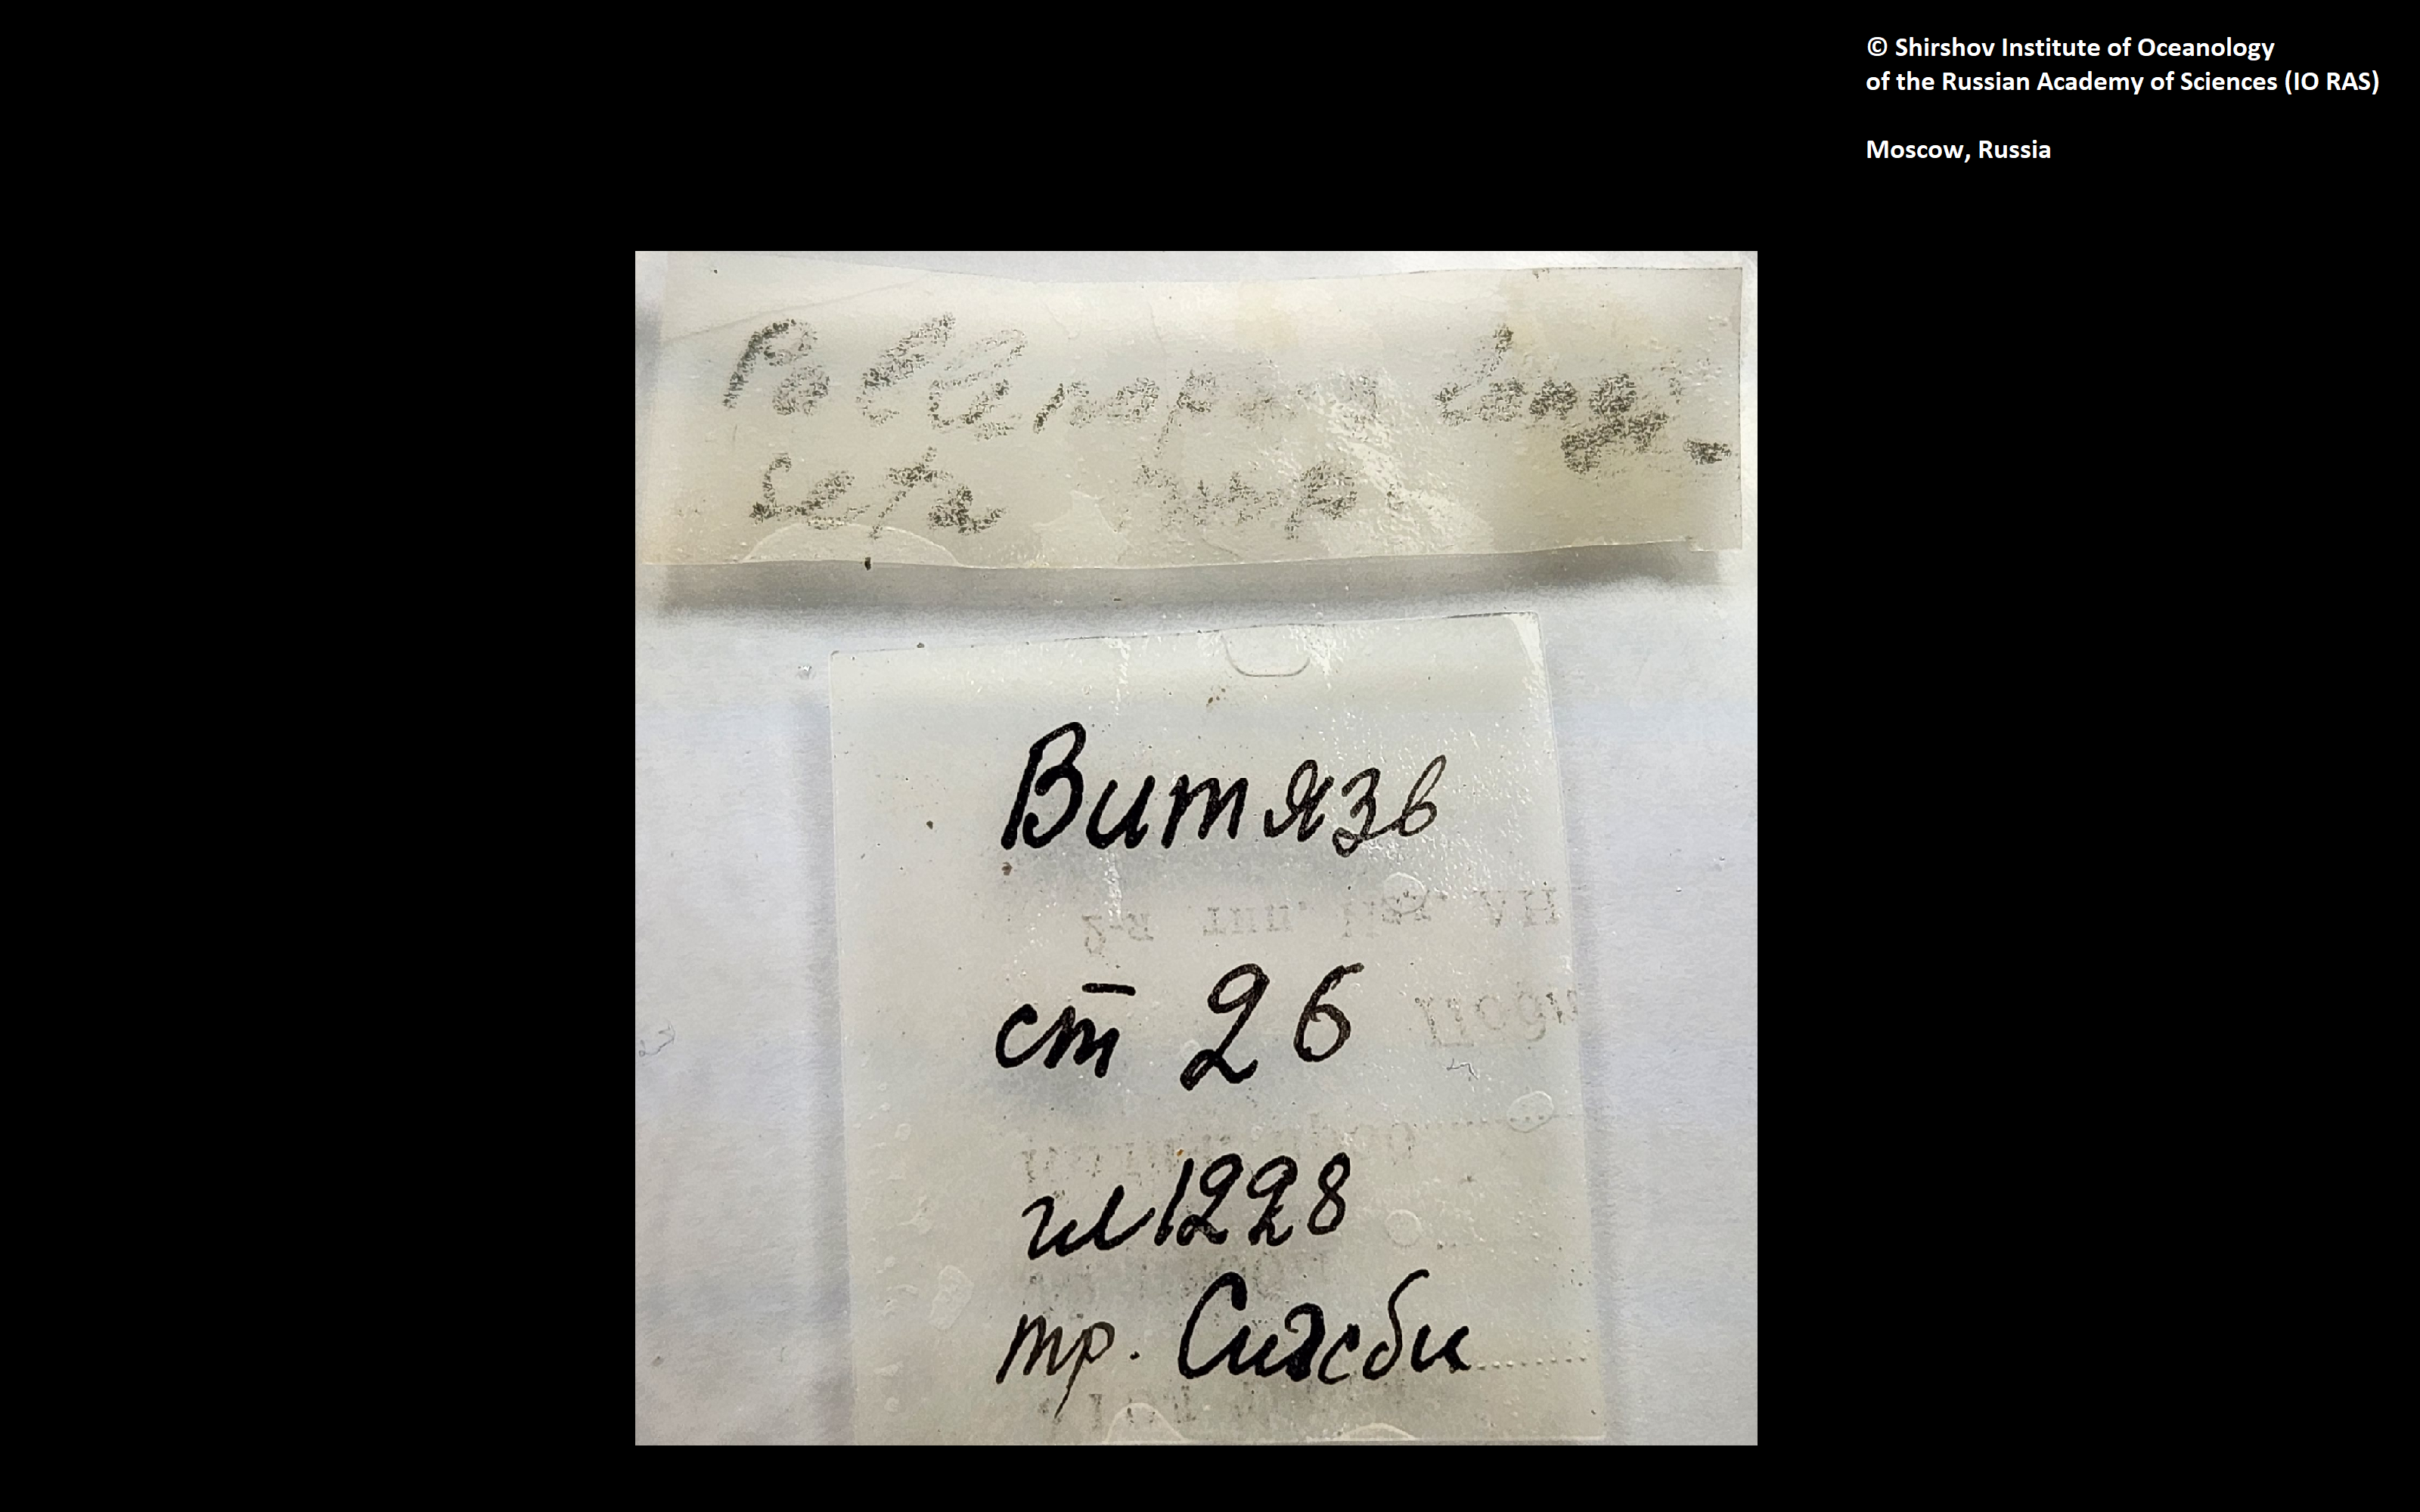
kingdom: Animalia
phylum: Arthropoda
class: Pycnogonida
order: Pantopoda
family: Pallenopsidae
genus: Bathypallenopsis
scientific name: Bathypallenopsis longiseta
